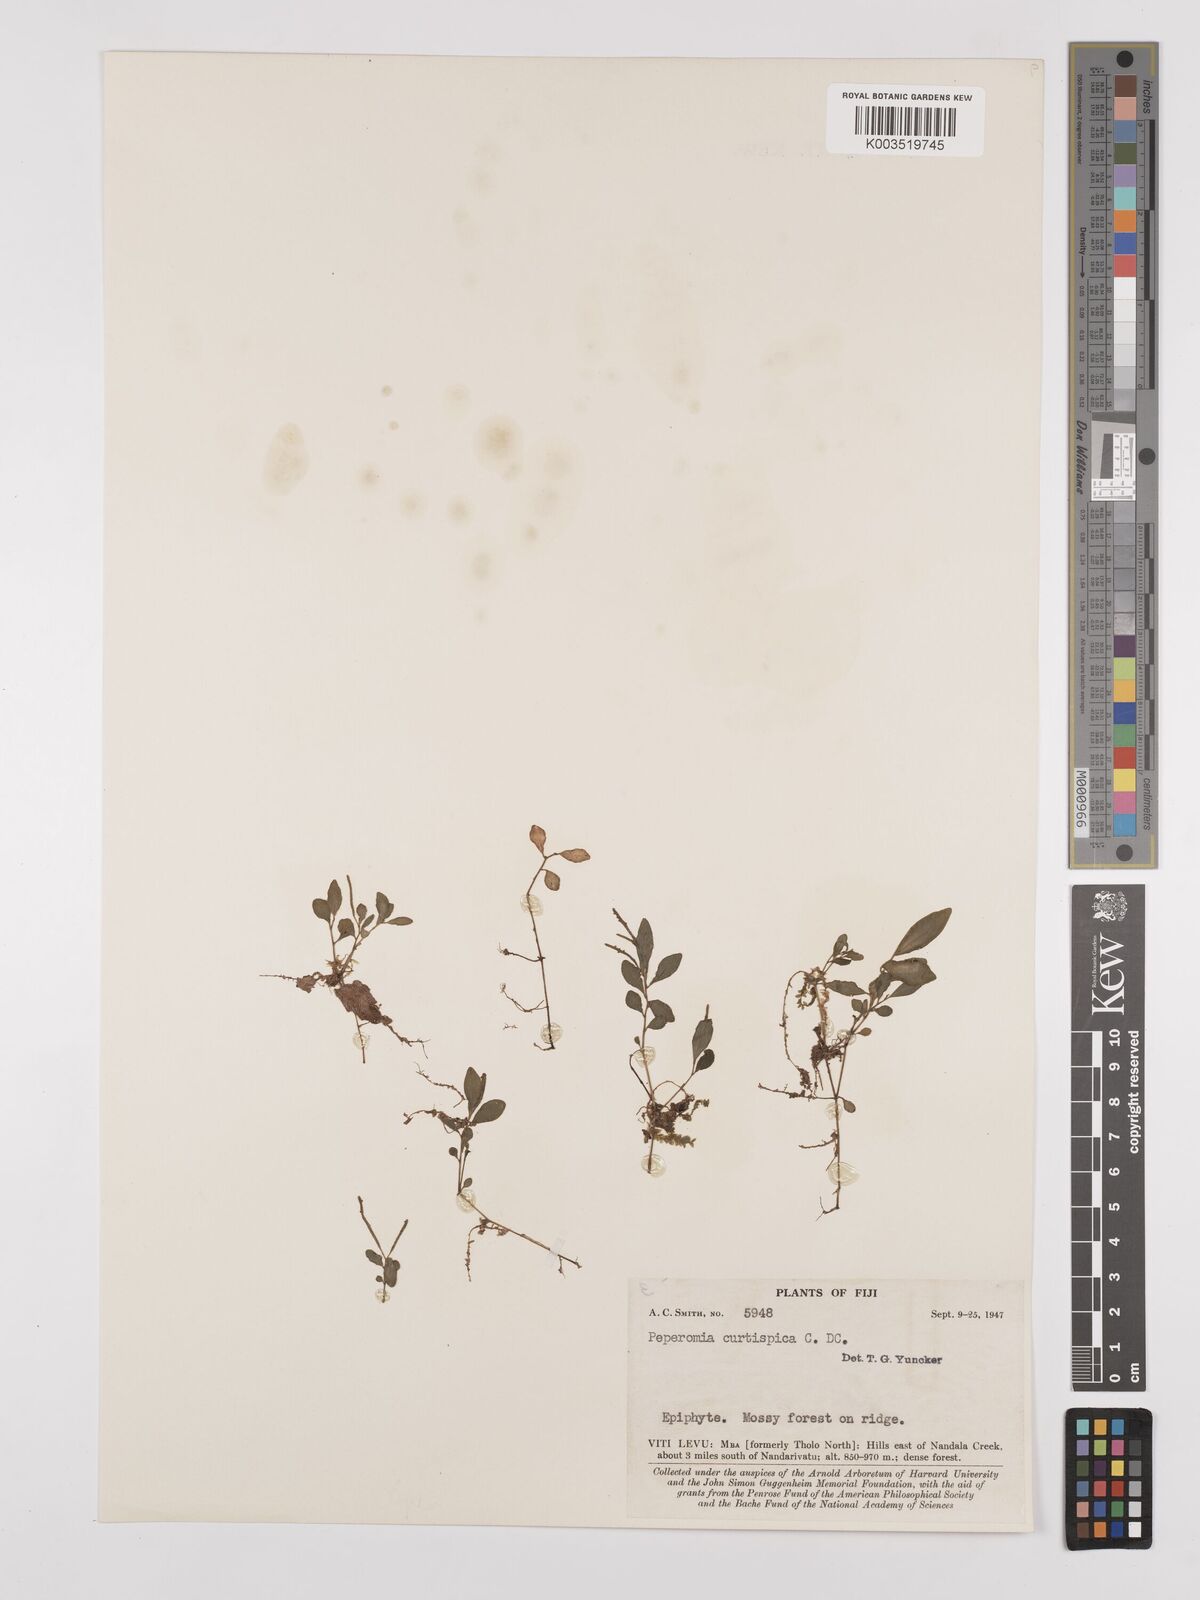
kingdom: Plantae
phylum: Tracheophyta
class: Magnoliopsida
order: Piperales
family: Piperaceae
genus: Peperomia
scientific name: Peperomia curtispica
